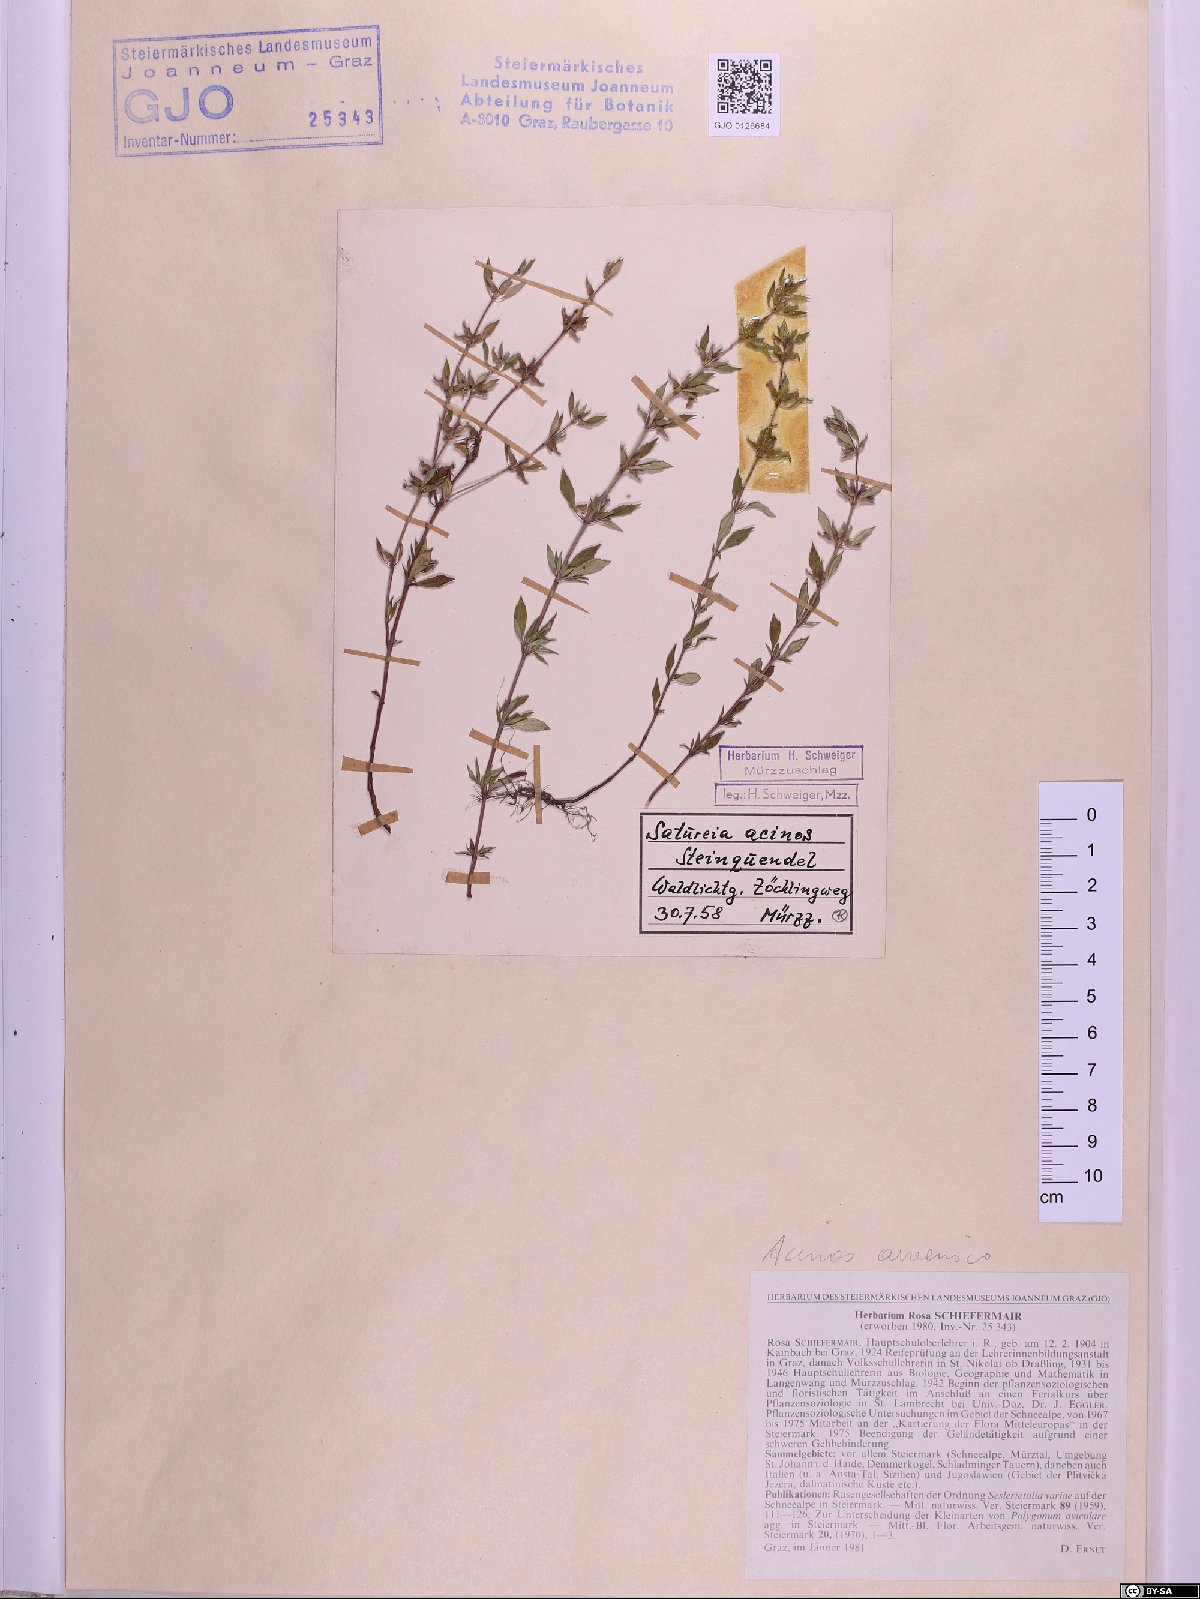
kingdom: Plantae
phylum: Tracheophyta
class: Magnoliopsida
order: Lamiales
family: Lamiaceae
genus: Clinopodium
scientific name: Clinopodium acinos
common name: Basil thyme
